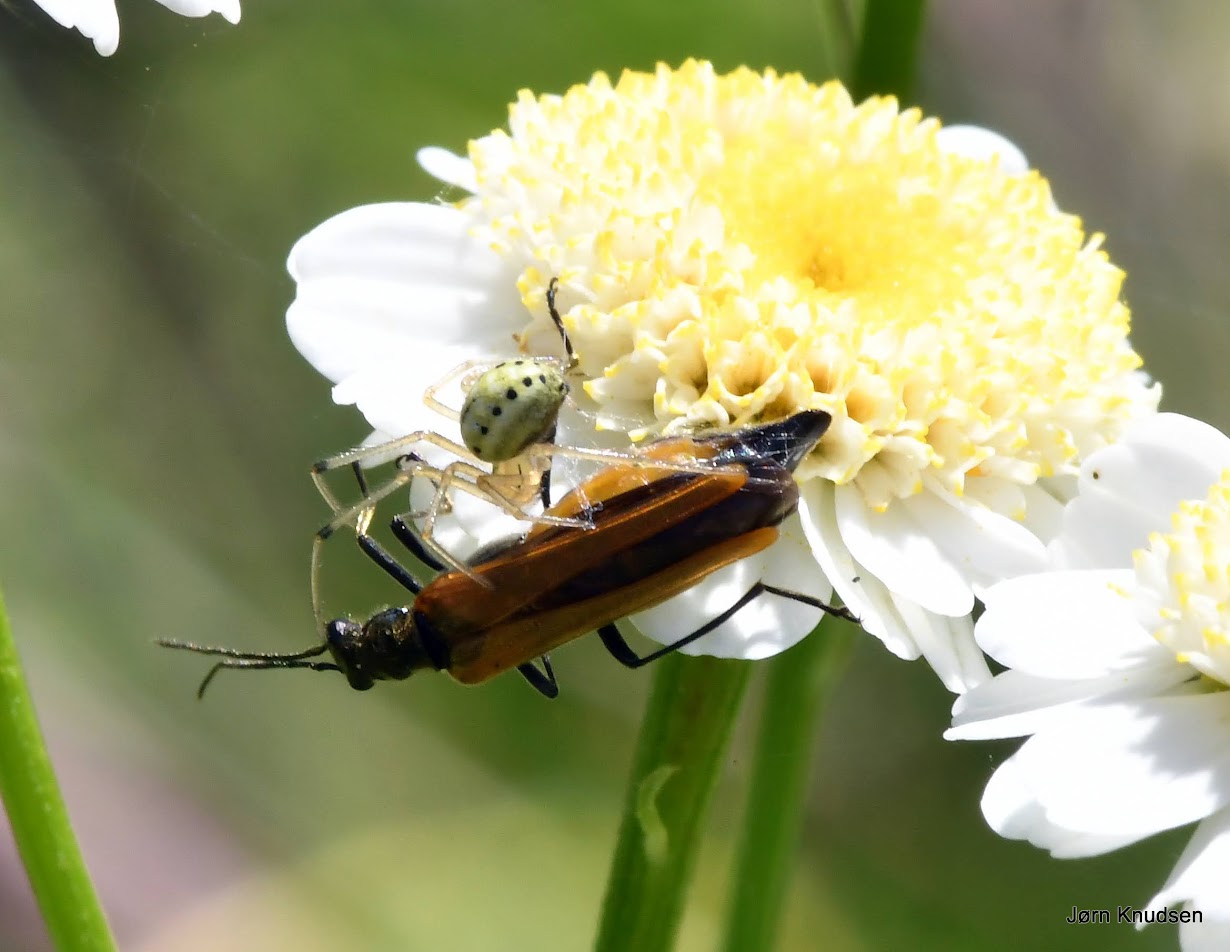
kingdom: Animalia
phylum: Arthropoda
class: Arachnida
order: Araneae
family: Theridiidae
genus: Enoplognatha
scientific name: Enoplognatha
